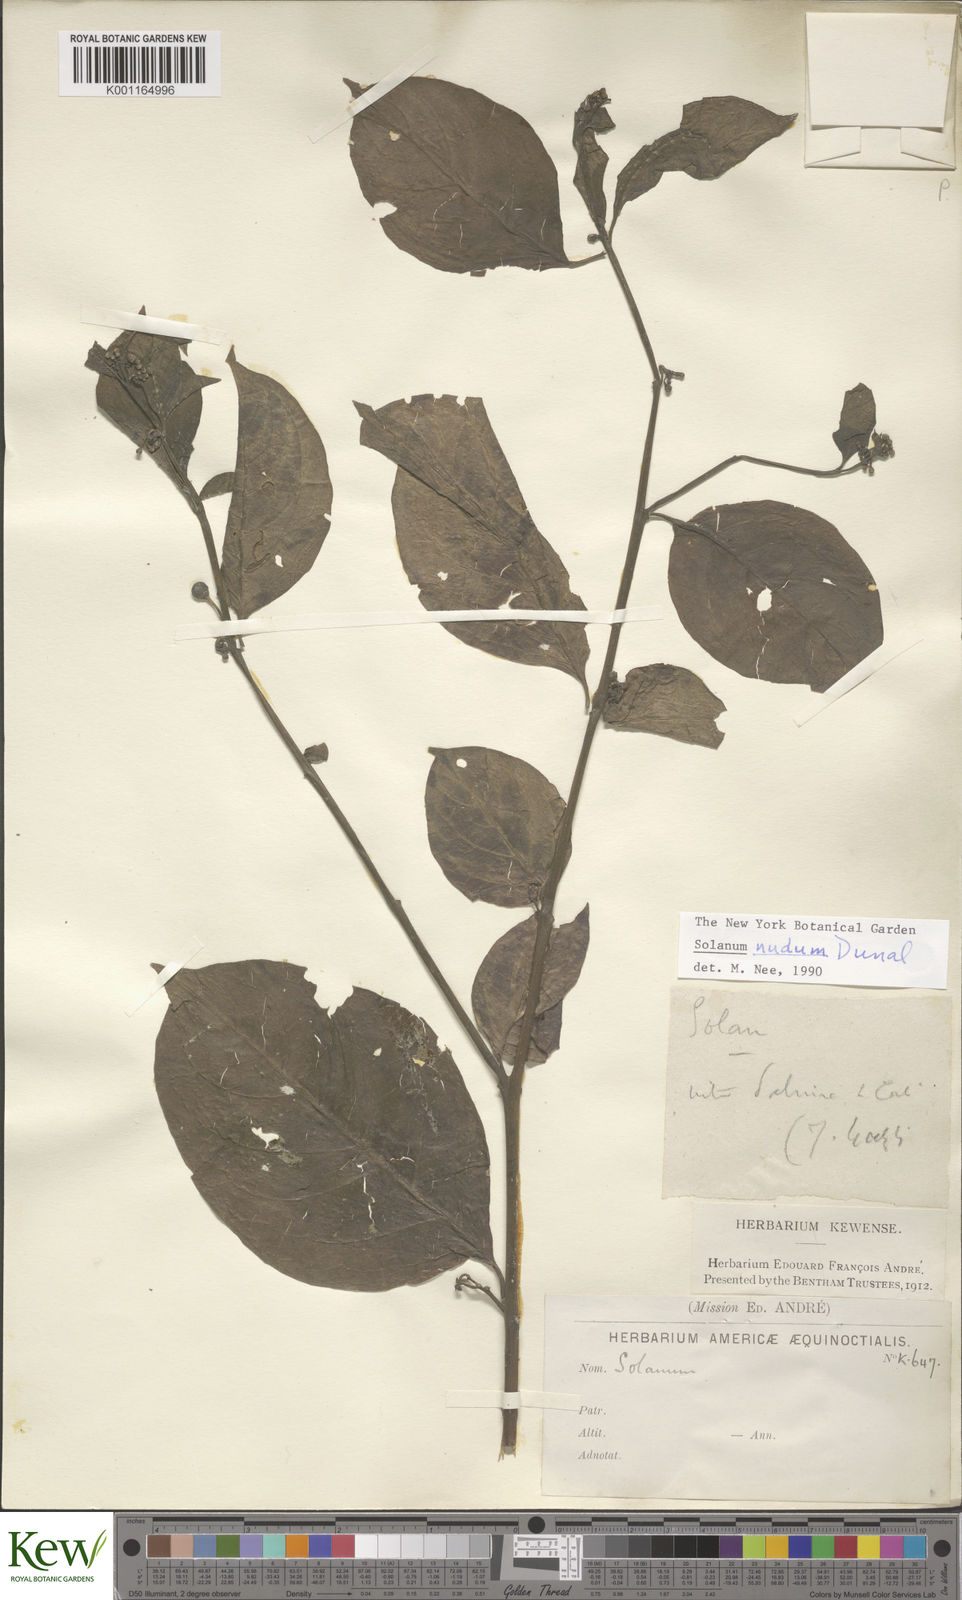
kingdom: Plantae
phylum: Tracheophyta
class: Magnoliopsida
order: Solanales
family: Solanaceae
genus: Solanum
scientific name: Solanum nudum
